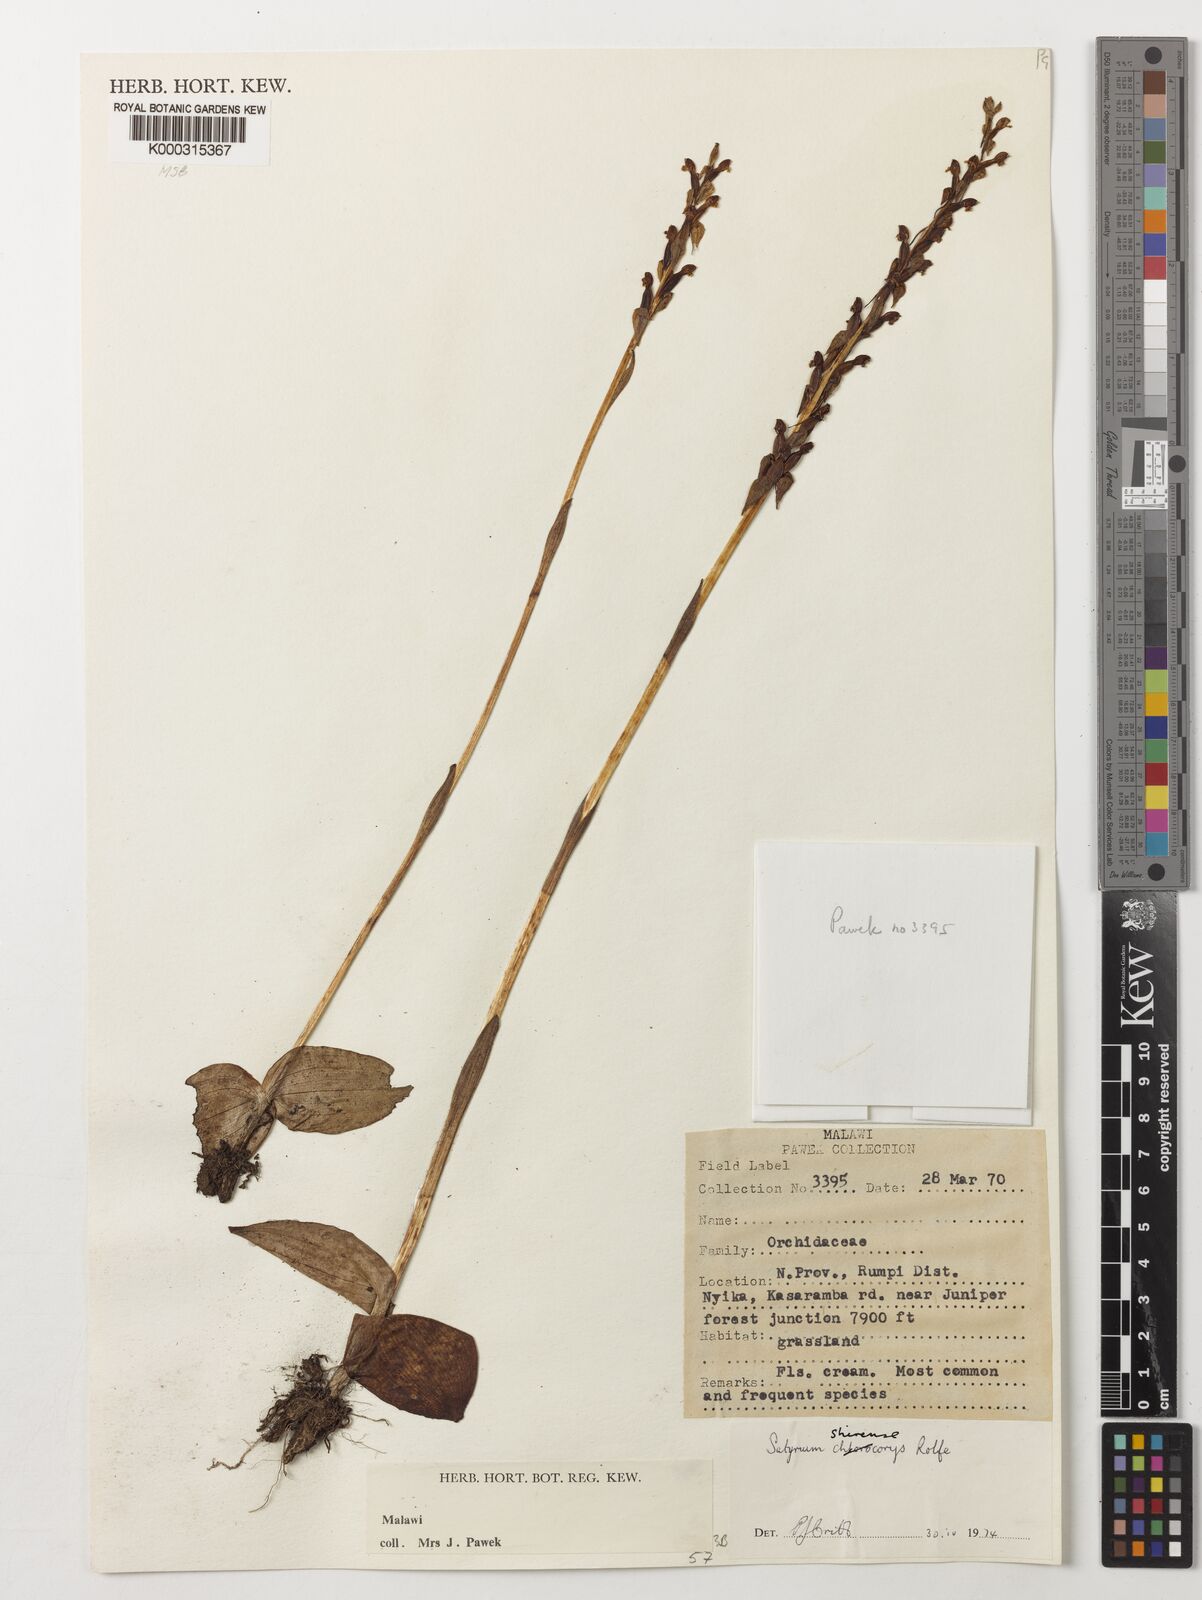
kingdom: Plantae
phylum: Tracheophyta
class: Liliopsida
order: Asparagales
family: Orchidaceae
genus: Satyrium
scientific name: Satyrium shirense
